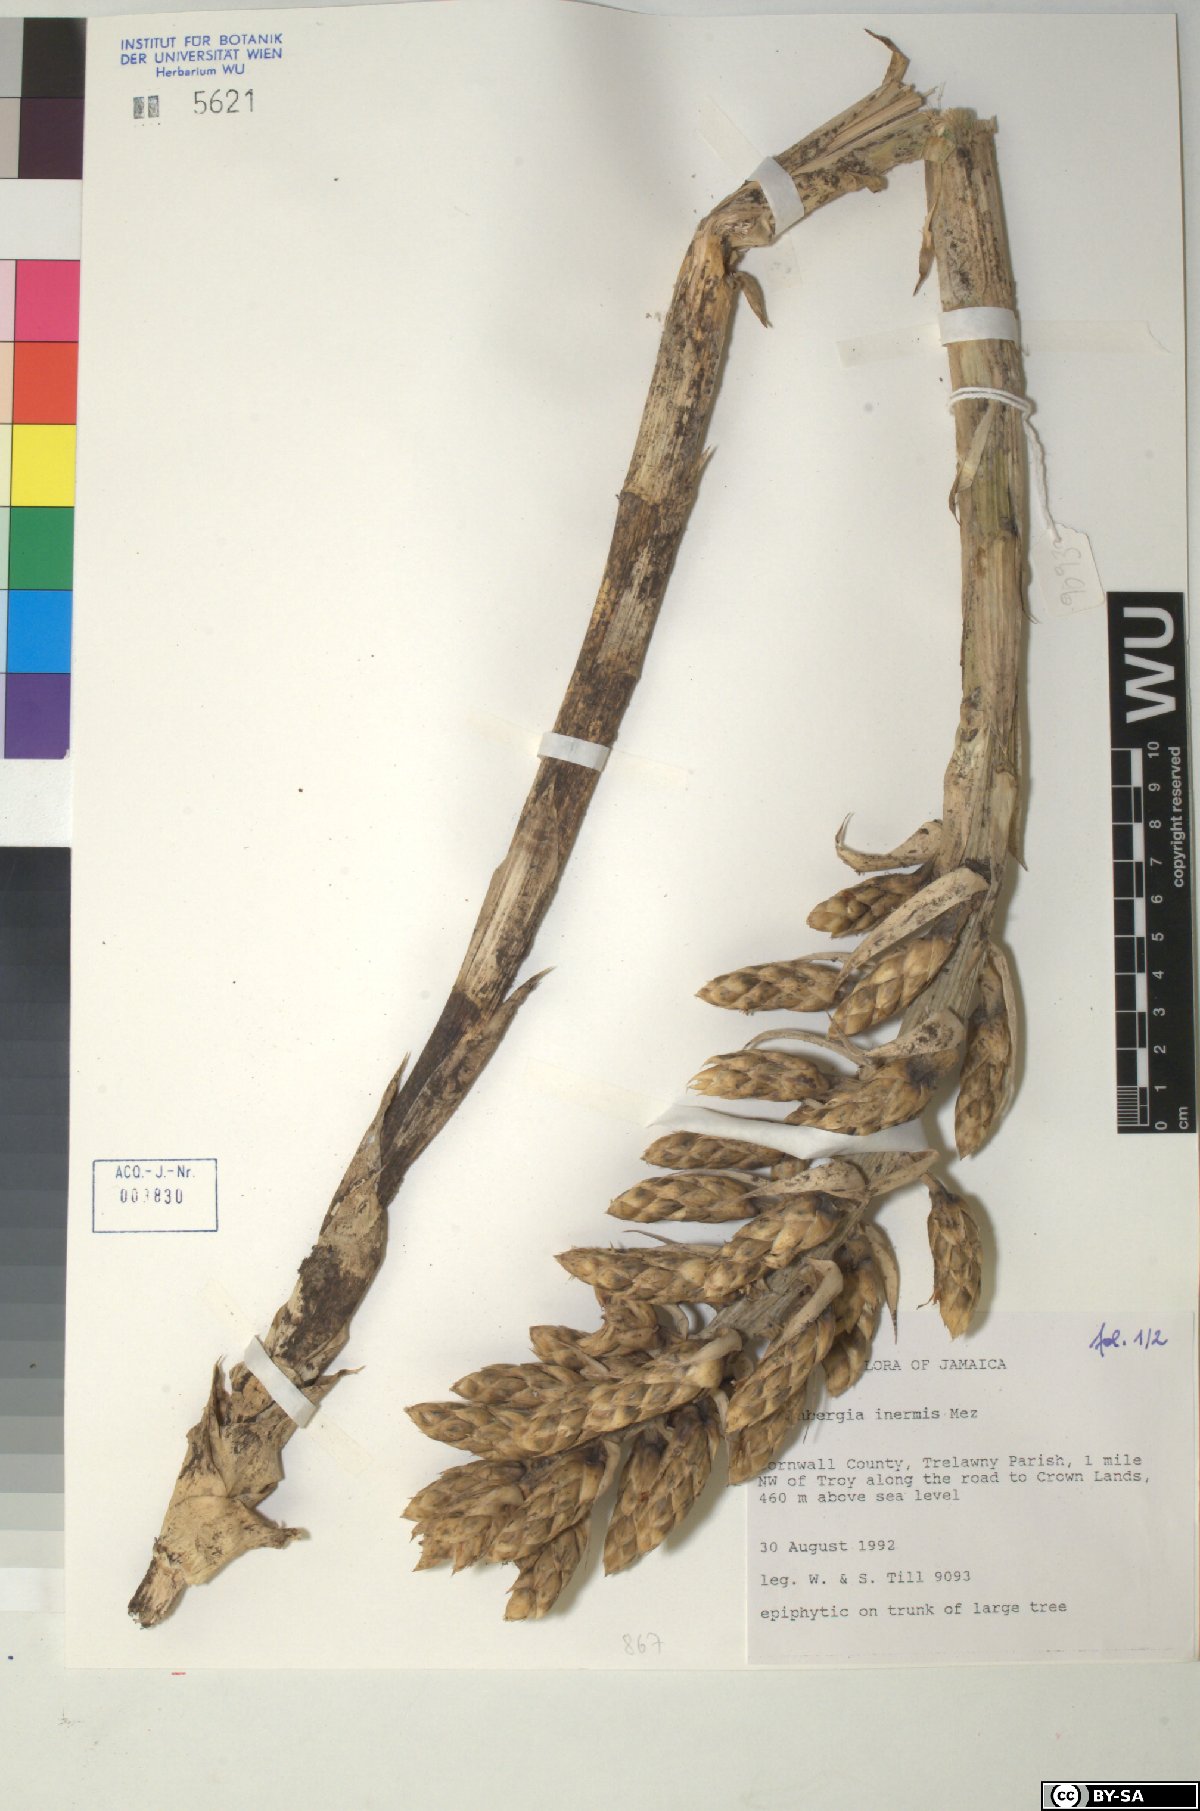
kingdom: Plantae
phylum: Tracheophyta
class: Liliopsida
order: Poales
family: Bromeliaceae
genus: Wittmackia
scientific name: Wittmackia inermis
